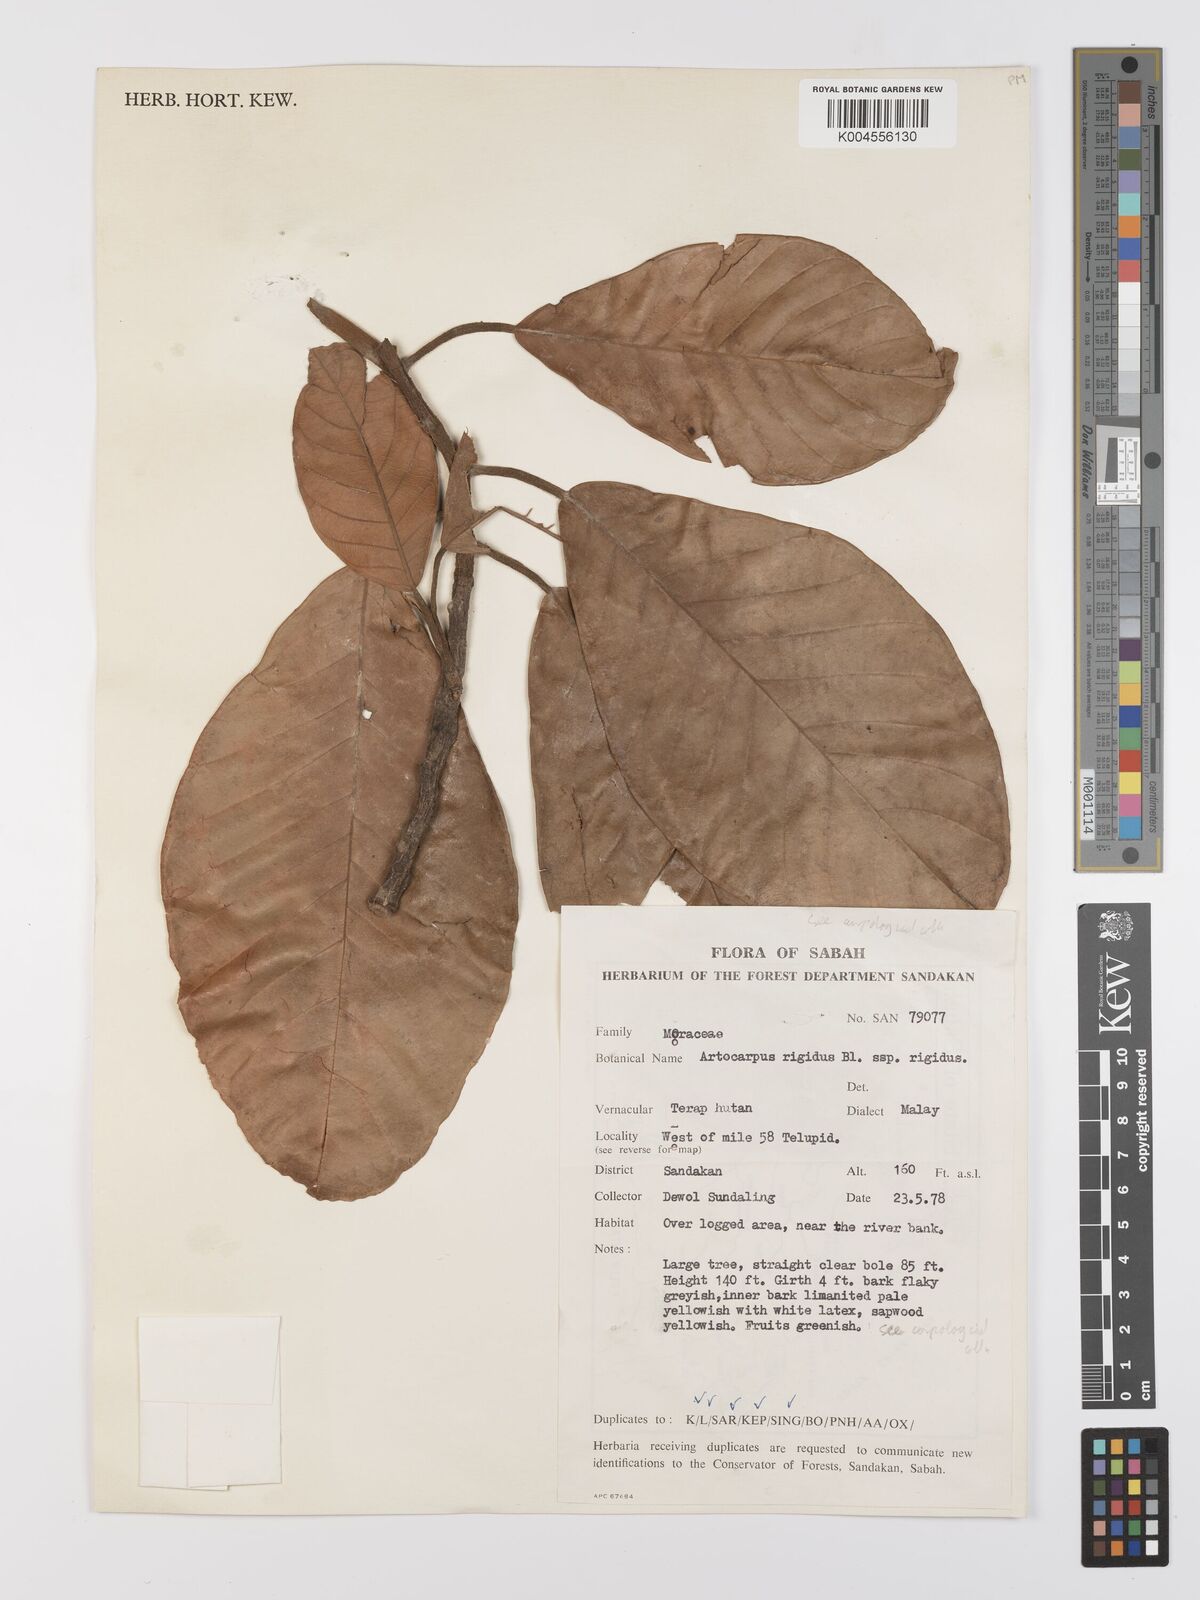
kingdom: Plantae
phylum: Tracheophyta
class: Magnoliopsida
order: Rosales
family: Moraceae
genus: Artocarpus
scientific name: Artocarpus
